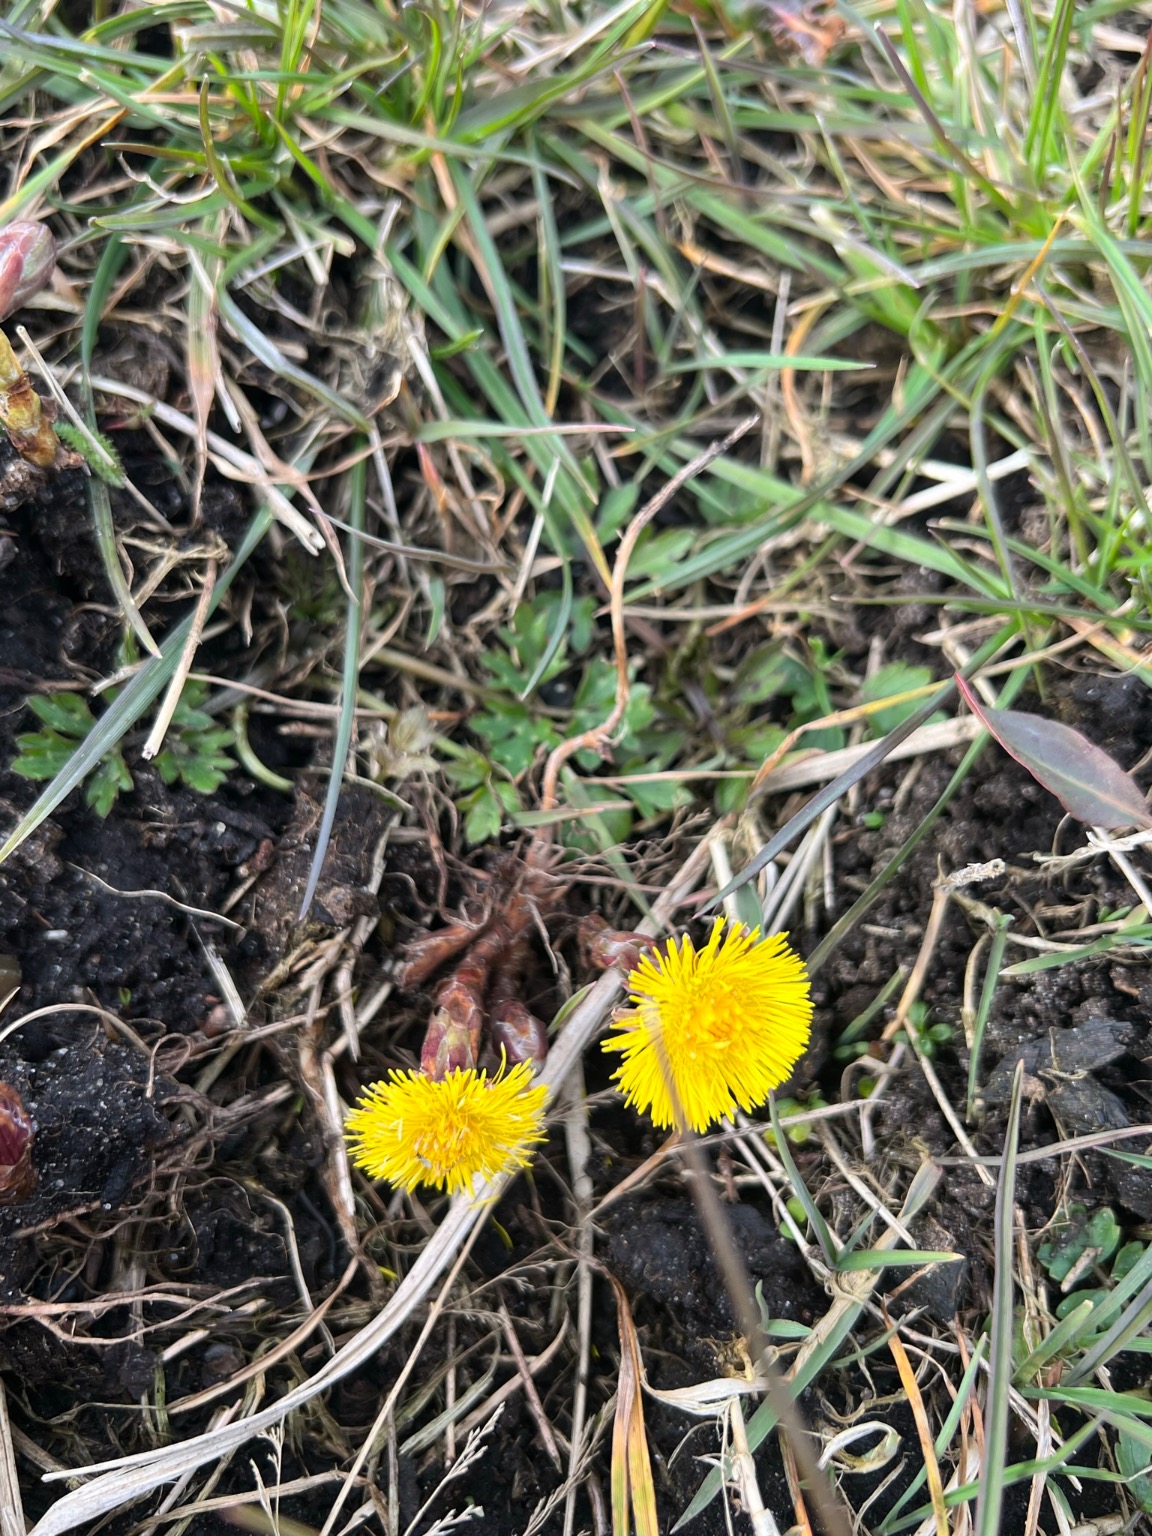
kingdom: Plantae
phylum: Tracheophyta
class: Magnoliopsida
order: Asterales
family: Asteraceae
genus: Tussilago
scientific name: Tussilago farfara
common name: Følfod
